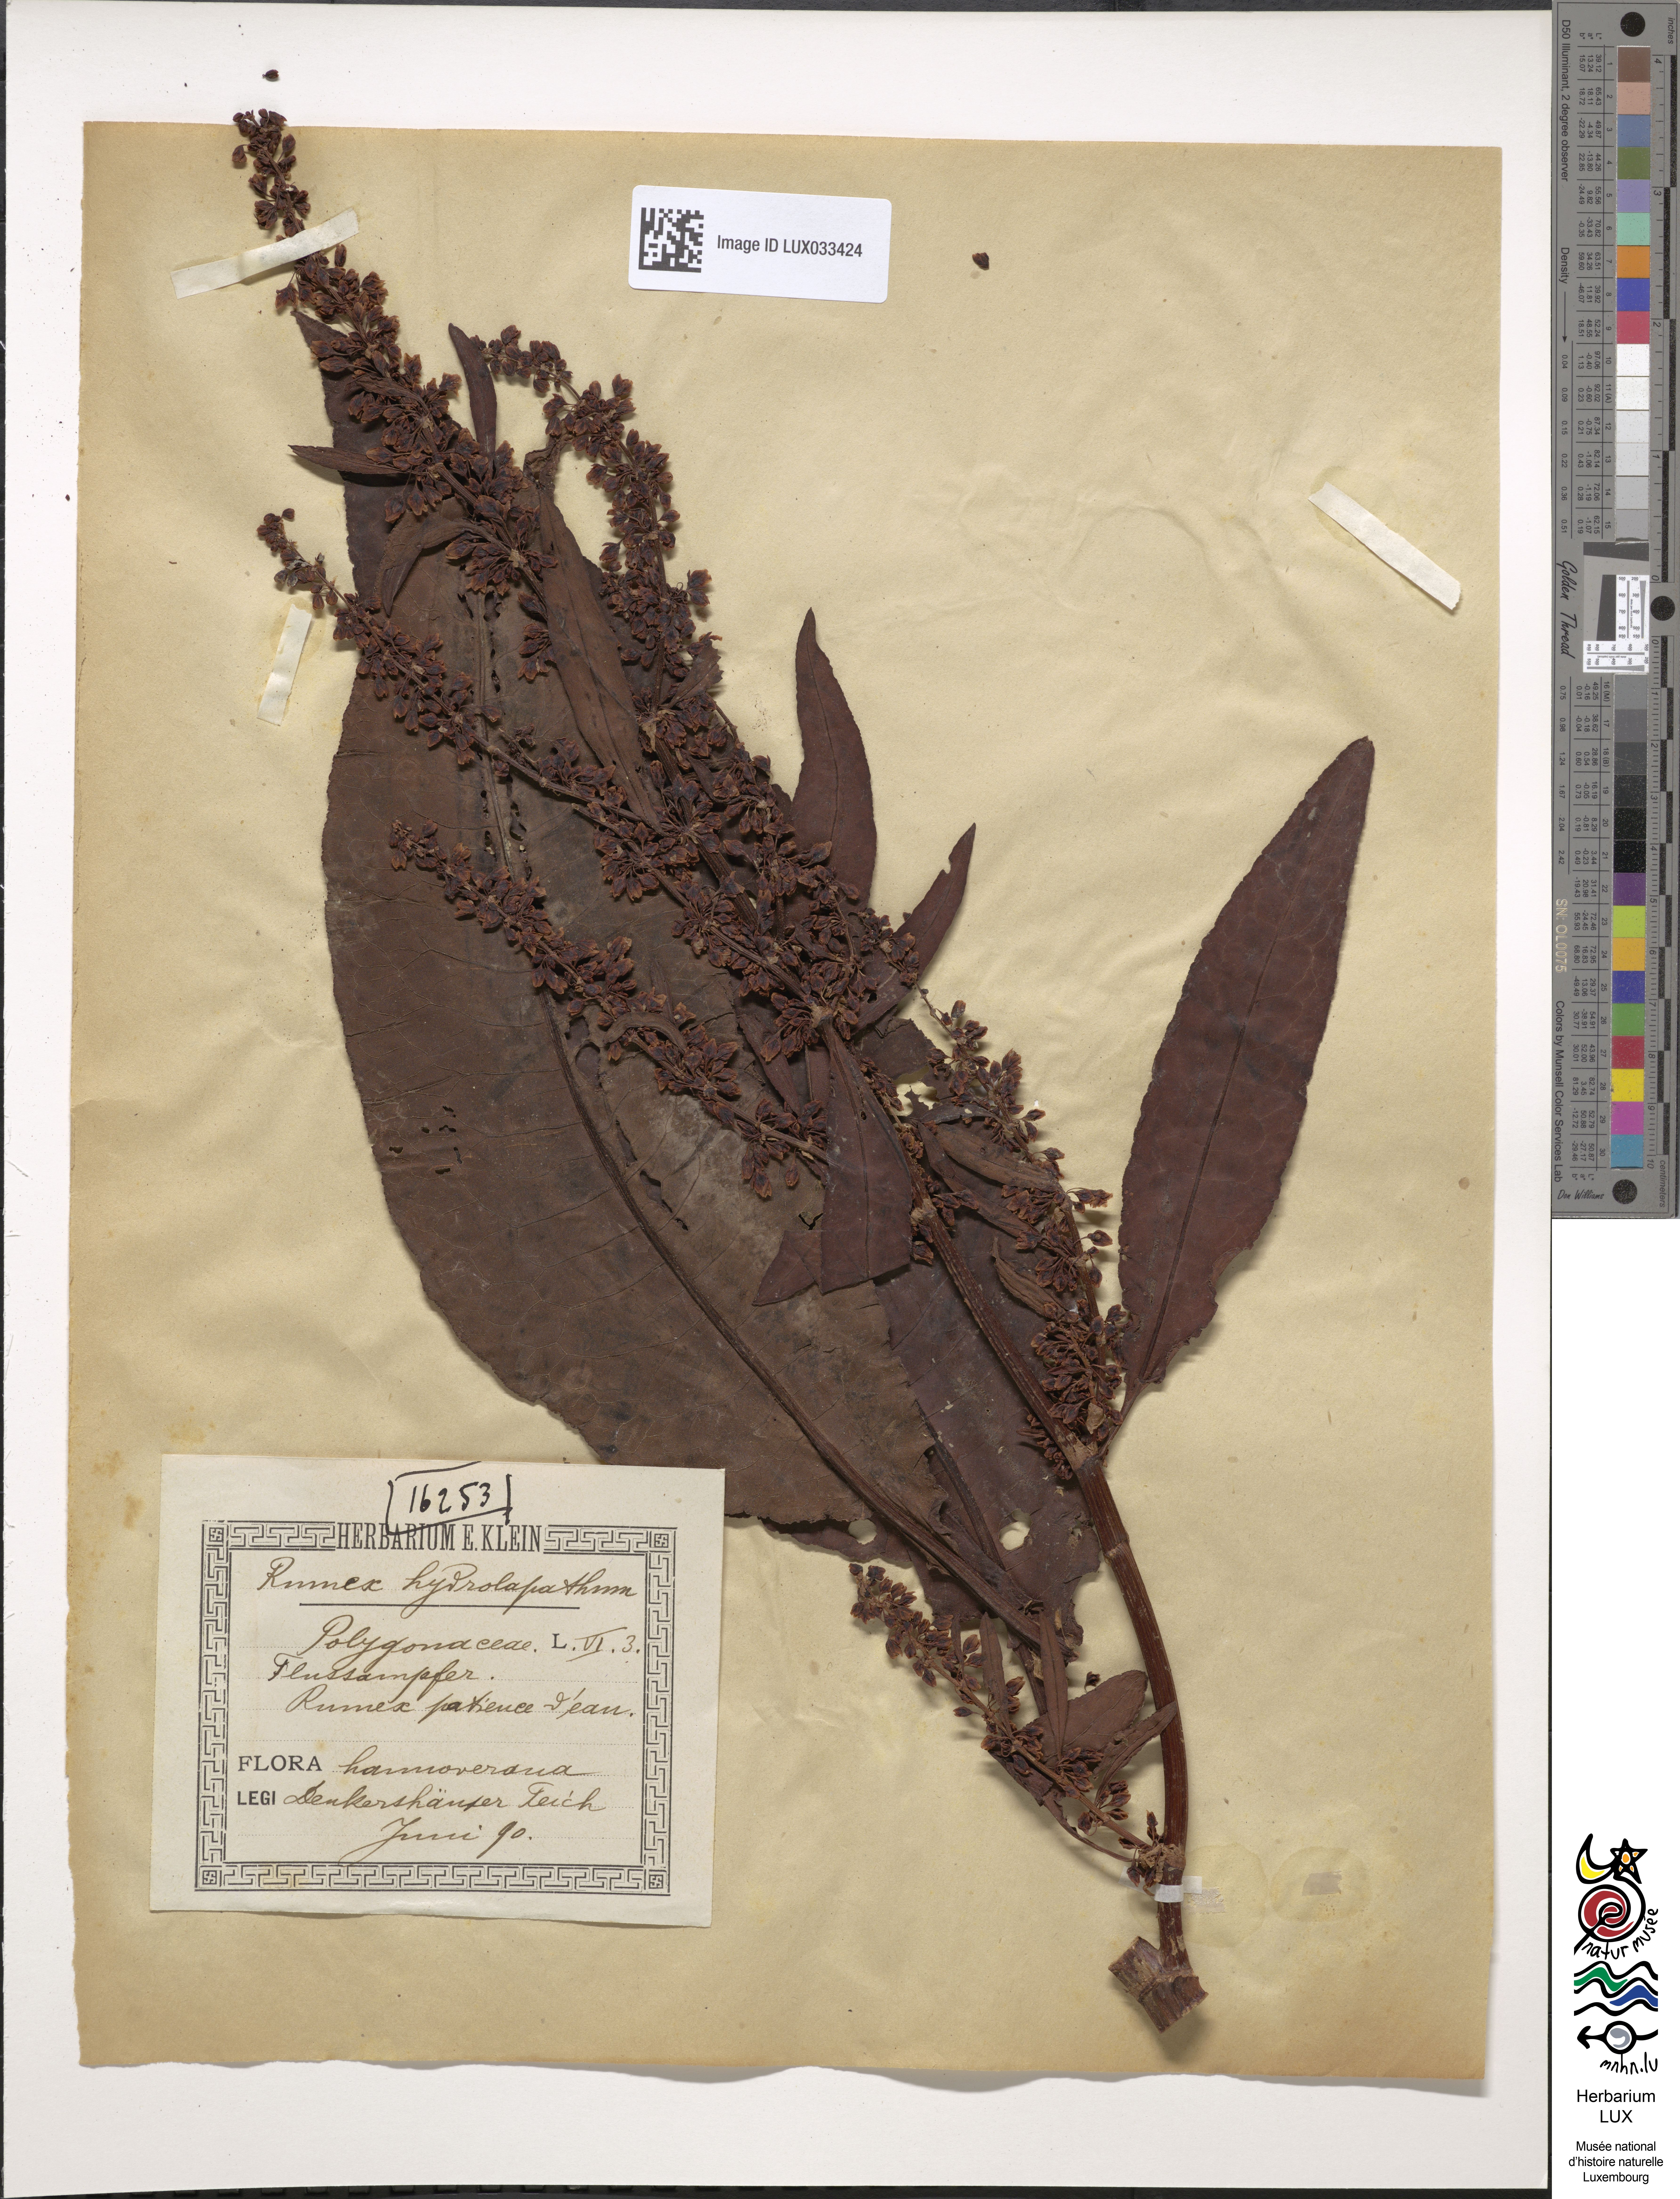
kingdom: Plantae
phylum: Tracheophyta
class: Magnoliopsida
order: Caryophyllales
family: Polygonaceae
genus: Rumex
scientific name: Rumex hydrolapathum
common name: Water dock
